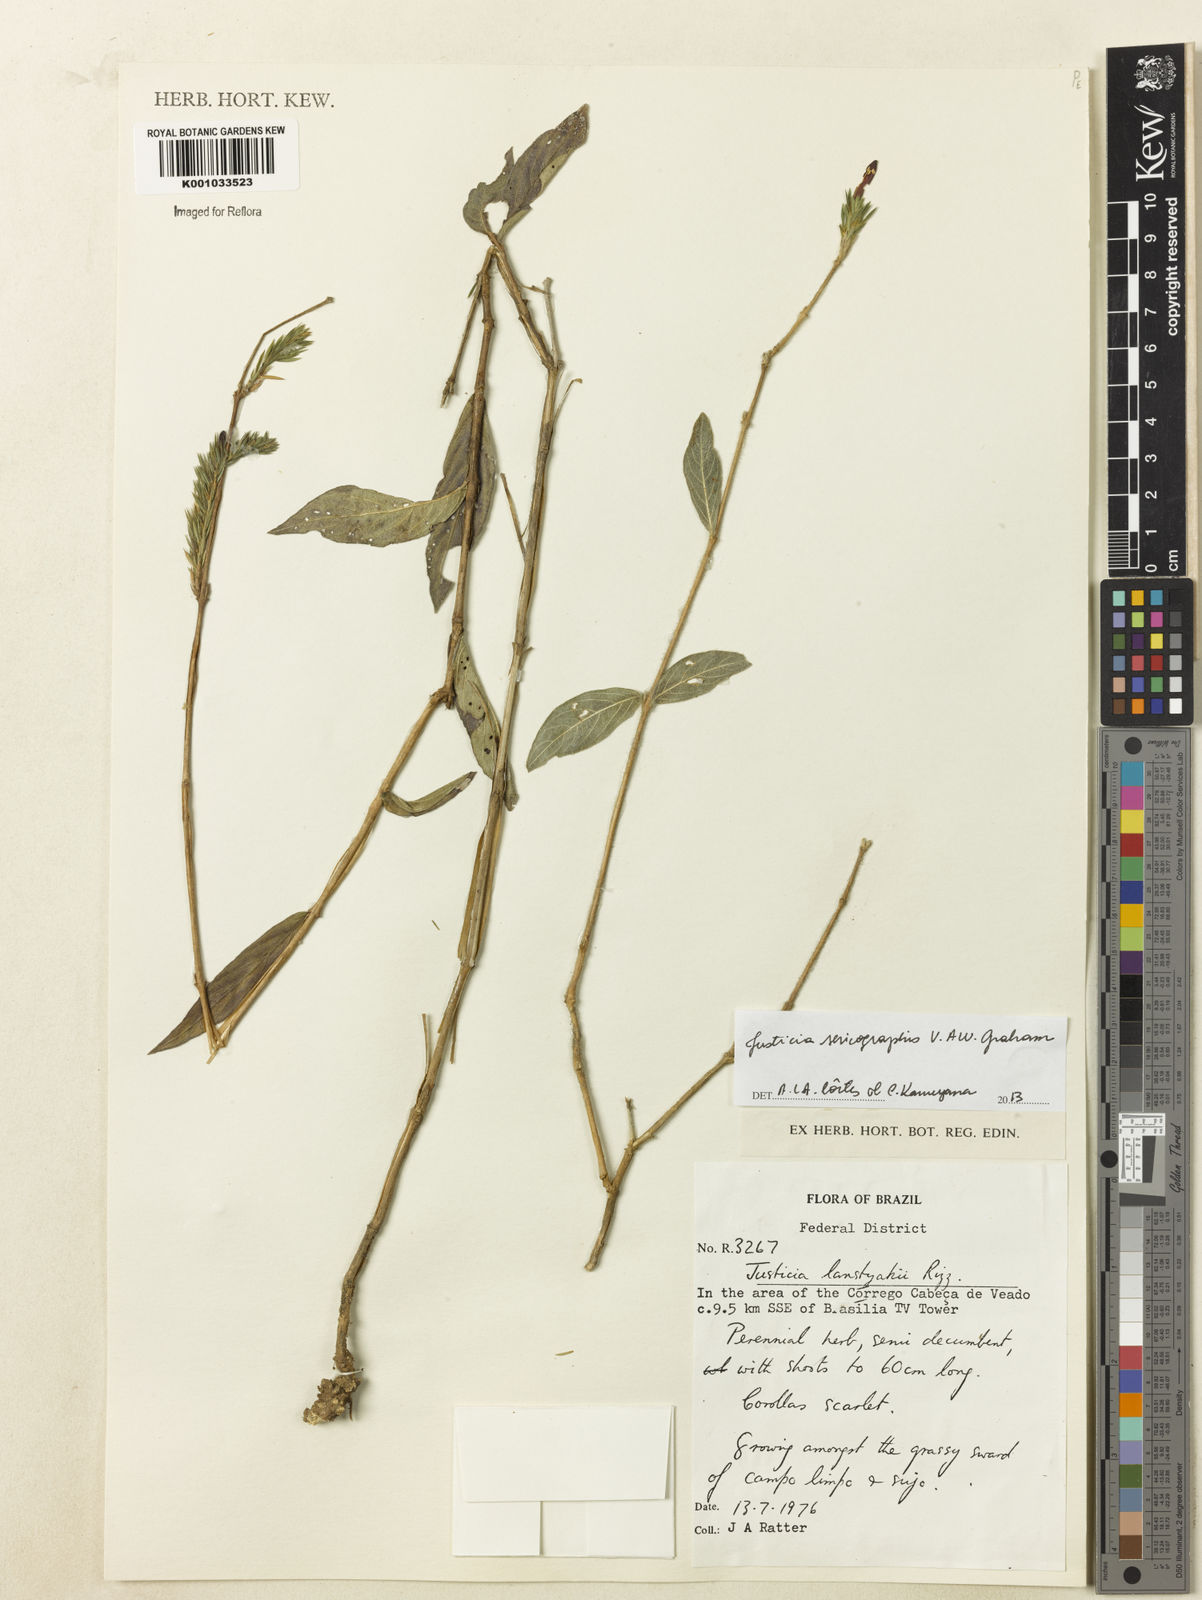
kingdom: Plantae
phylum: Tracheophyta
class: Magnoliopsida
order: Lamiales
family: Acanthaceae
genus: Dianthera
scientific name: Dianthera rigida
